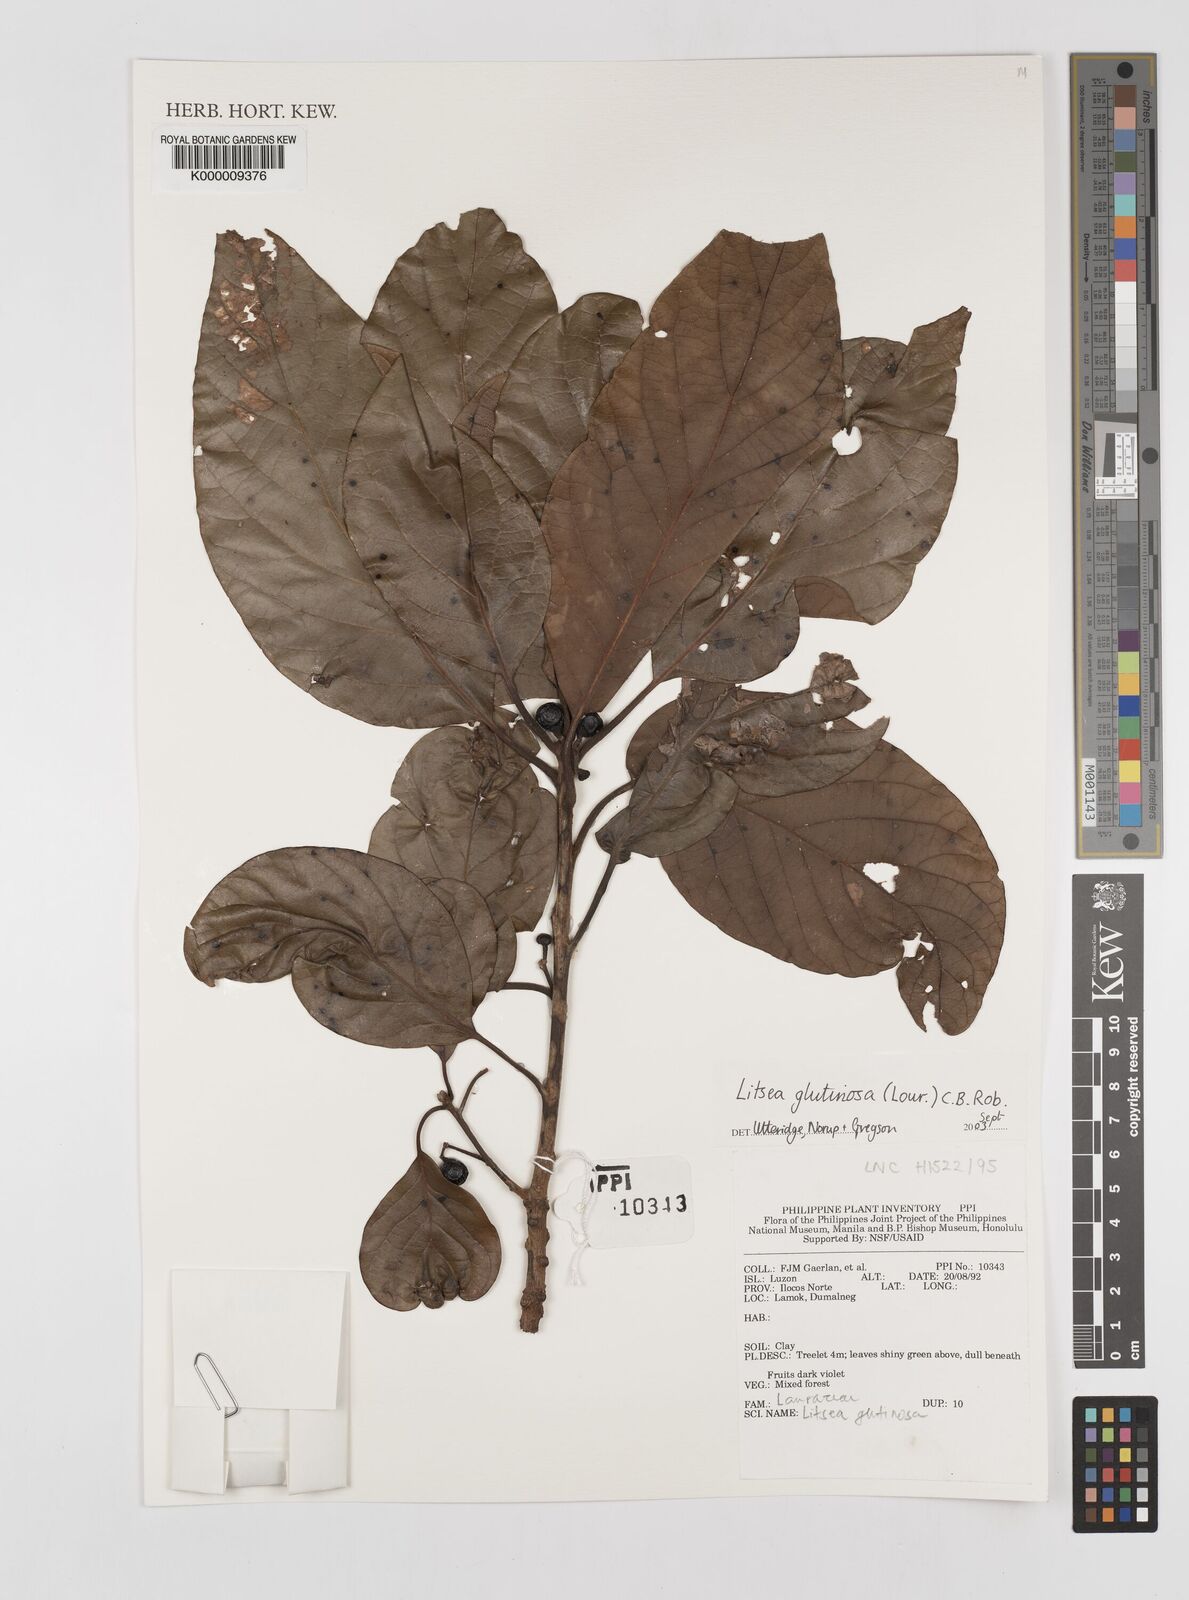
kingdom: Plantae
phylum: Tracheophyta
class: Magnoliopsida
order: Laurales
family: Lauraceae
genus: Litsea
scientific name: Litsea glutinosa
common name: Indian-laurel
